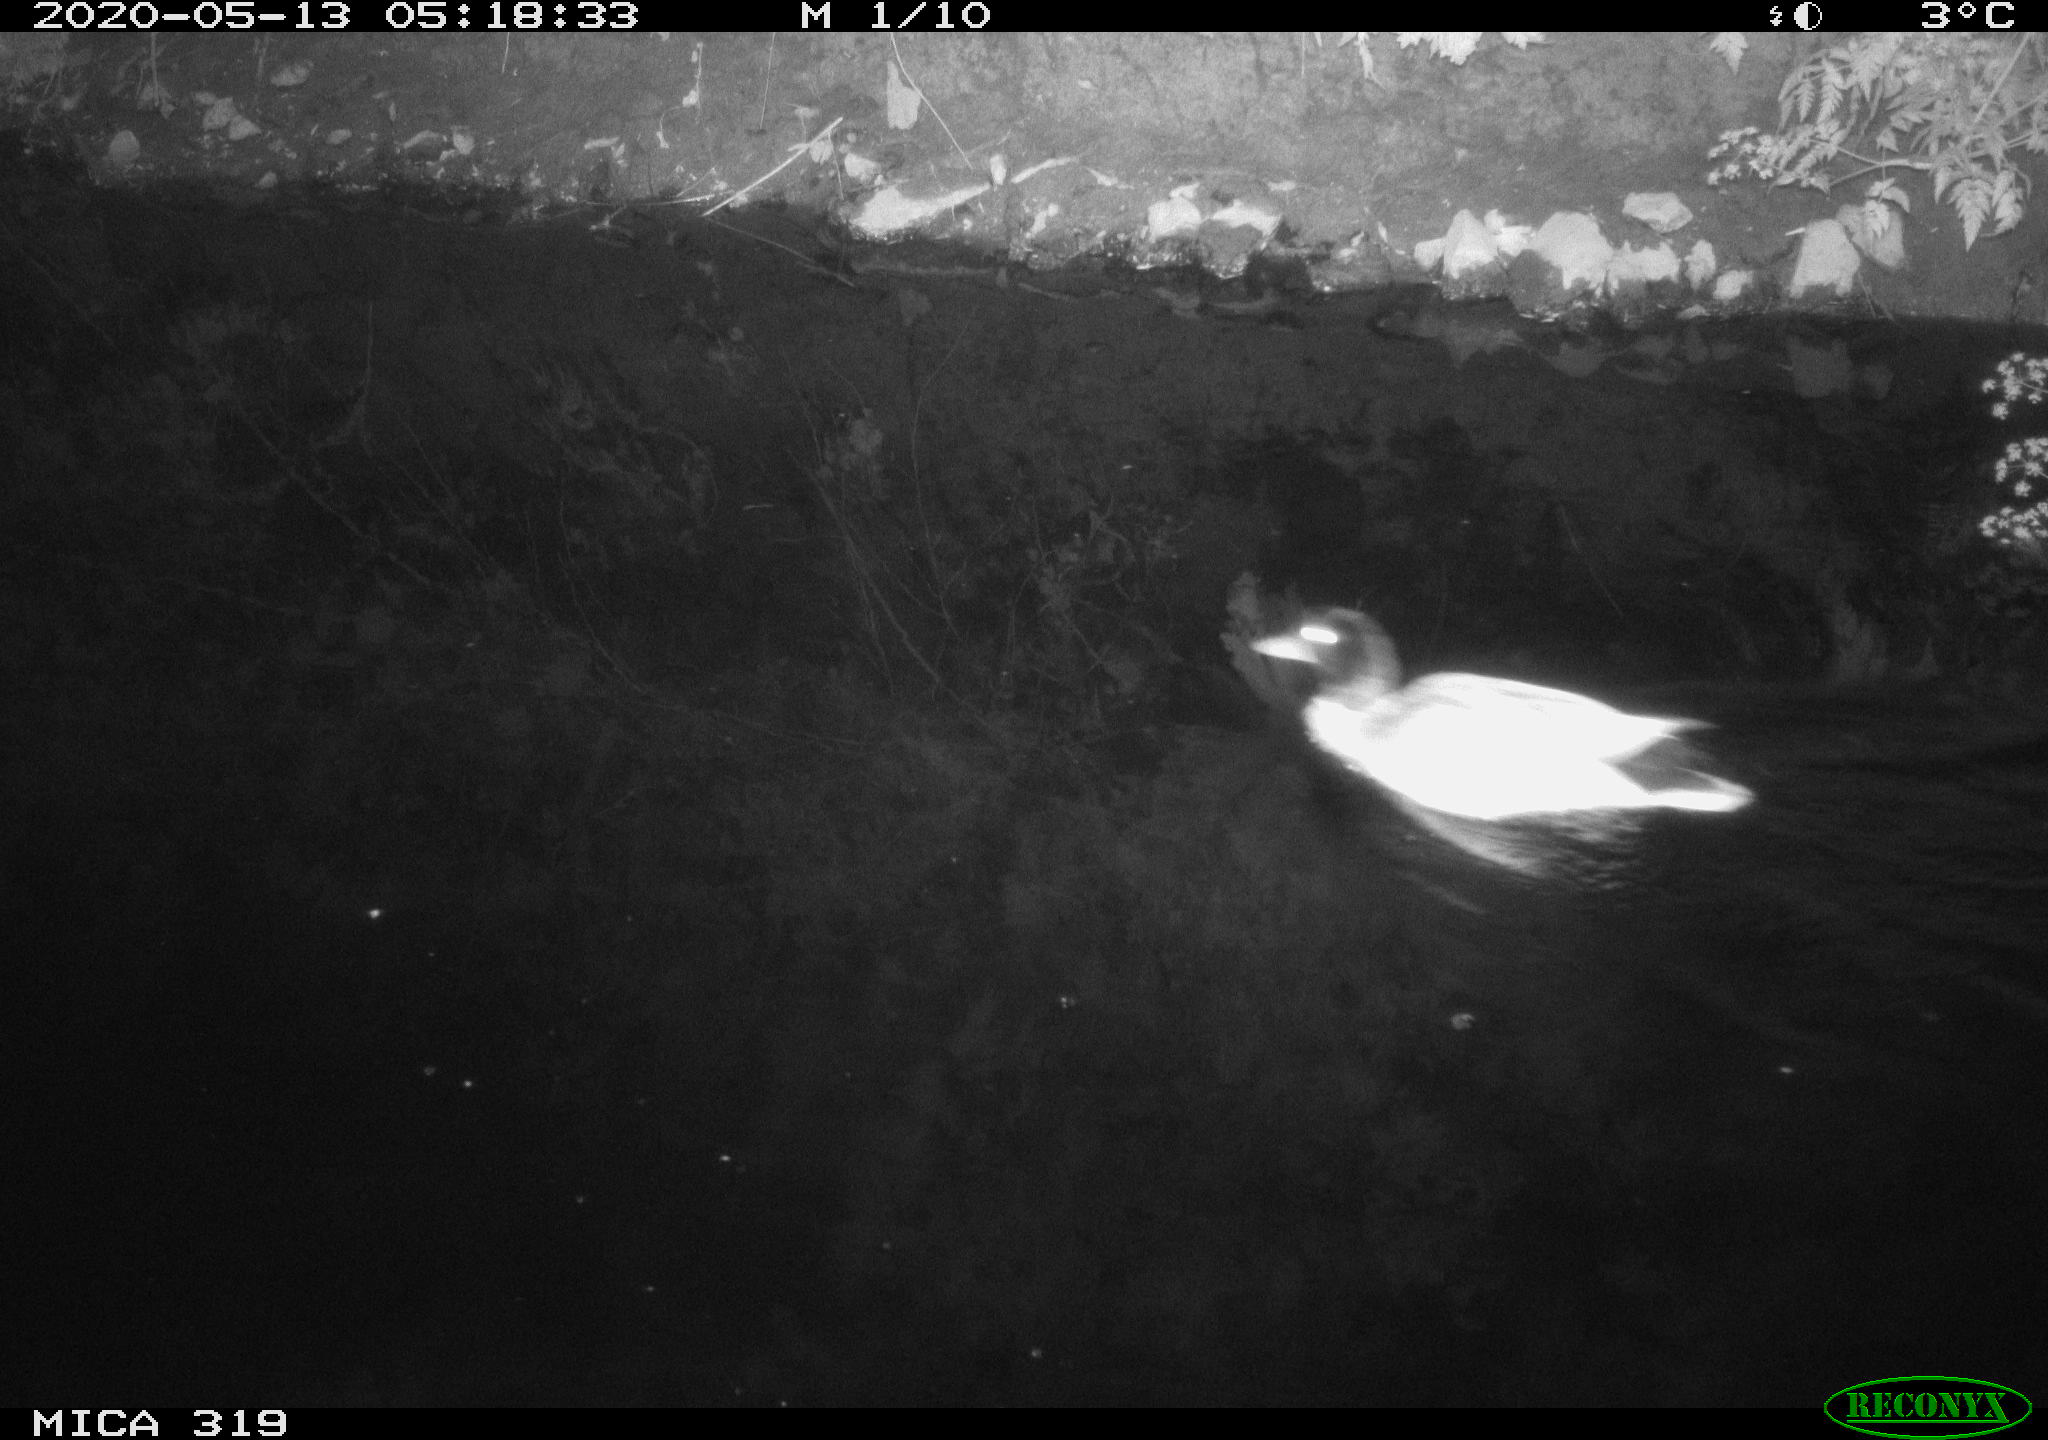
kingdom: Animalia
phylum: Chordata
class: Aves
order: Anseriformes
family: Anatidae
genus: Anas
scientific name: Anas platyrhynchos
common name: Mallard
